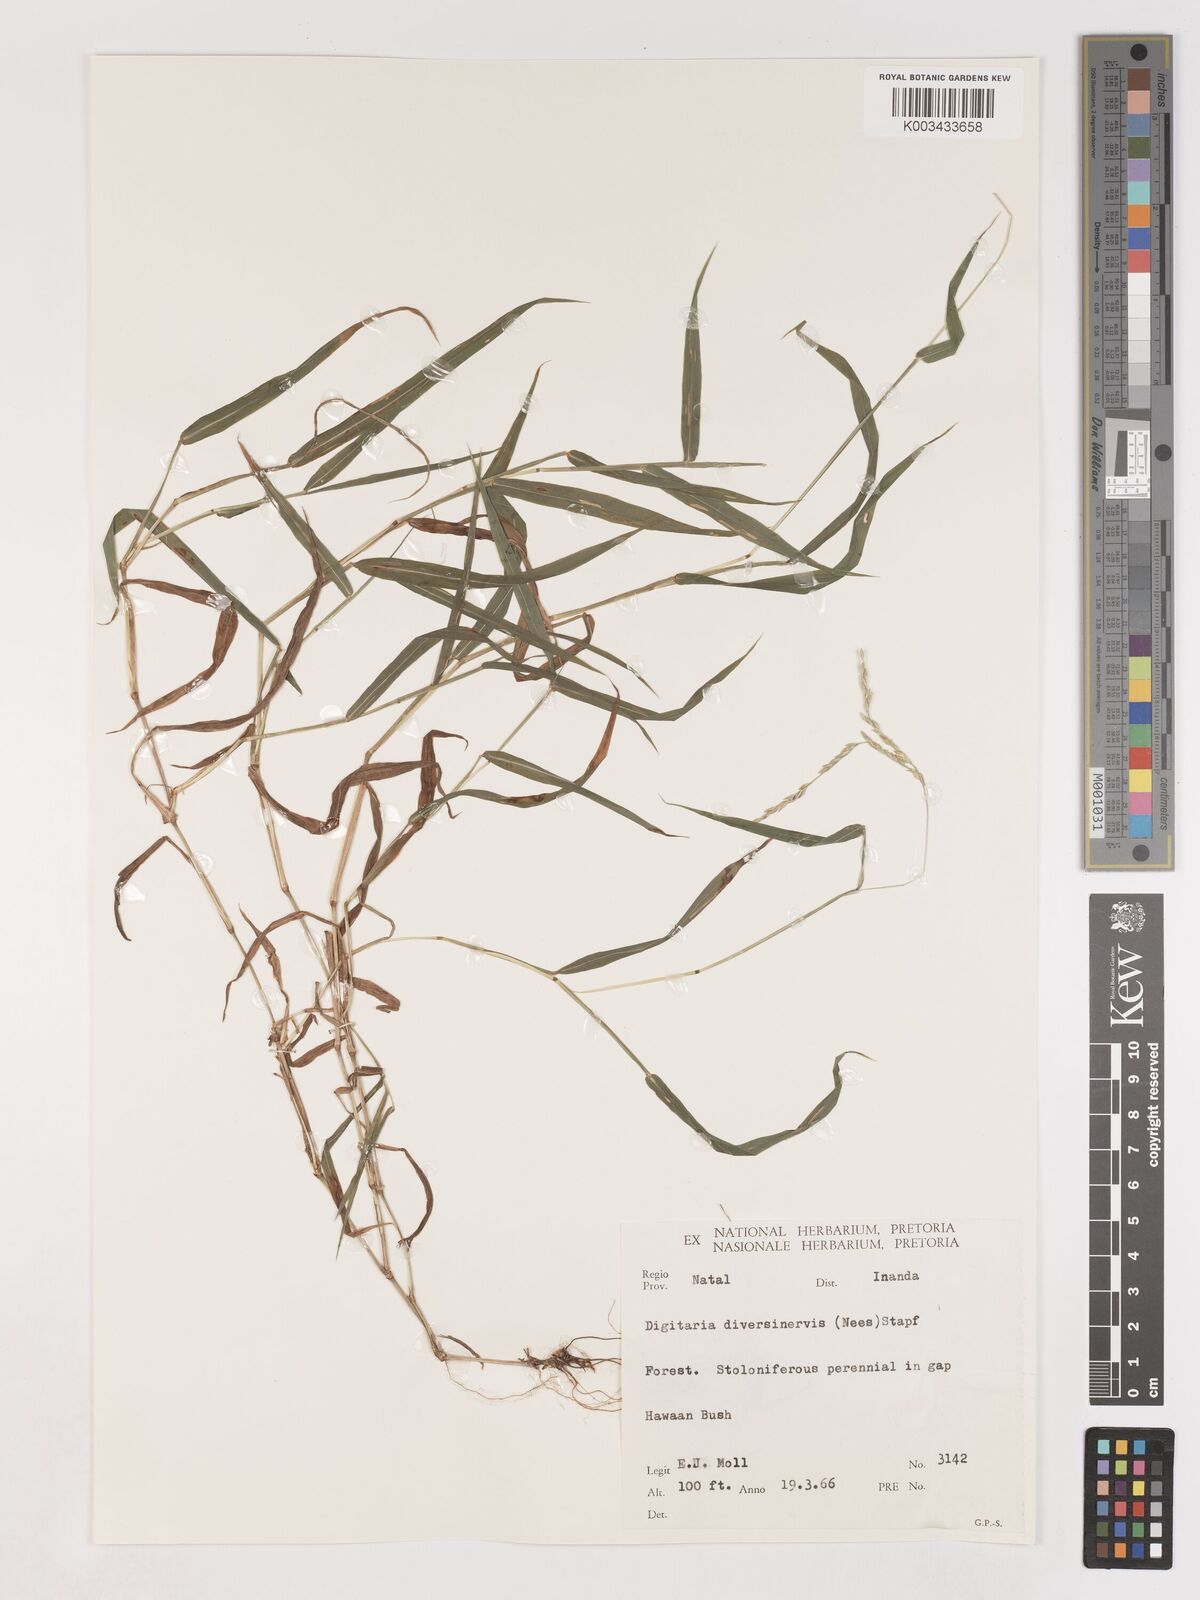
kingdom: Plantae
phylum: Tracheophyta
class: Liliopsida
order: Poales
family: Poaceae
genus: Digitaria
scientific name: Digitaria diversinervis
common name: Richmond finger grass
